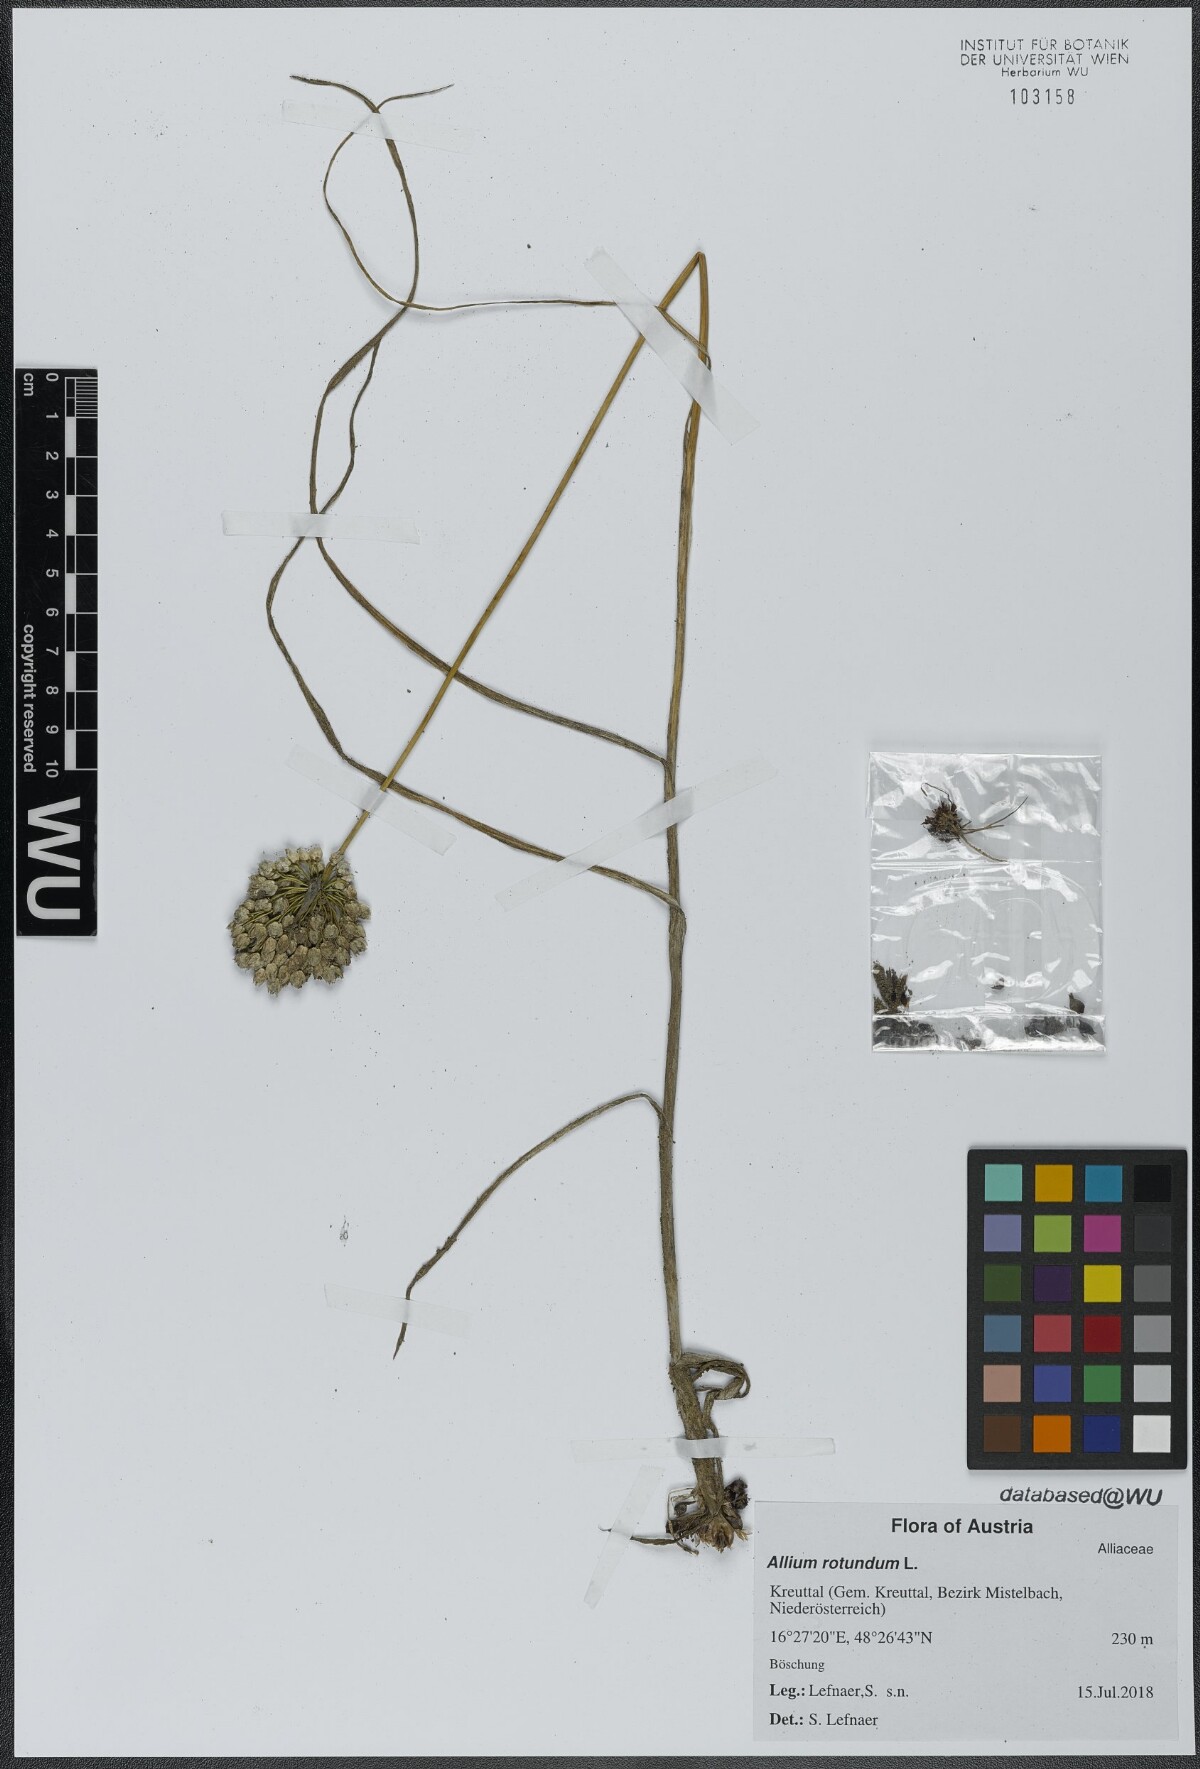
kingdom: Plantae
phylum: Tracheophyta
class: Liliopsida
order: Asparagales
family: Amaryllidaceae
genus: Allium
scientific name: Allium rotundum
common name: Sand leek
